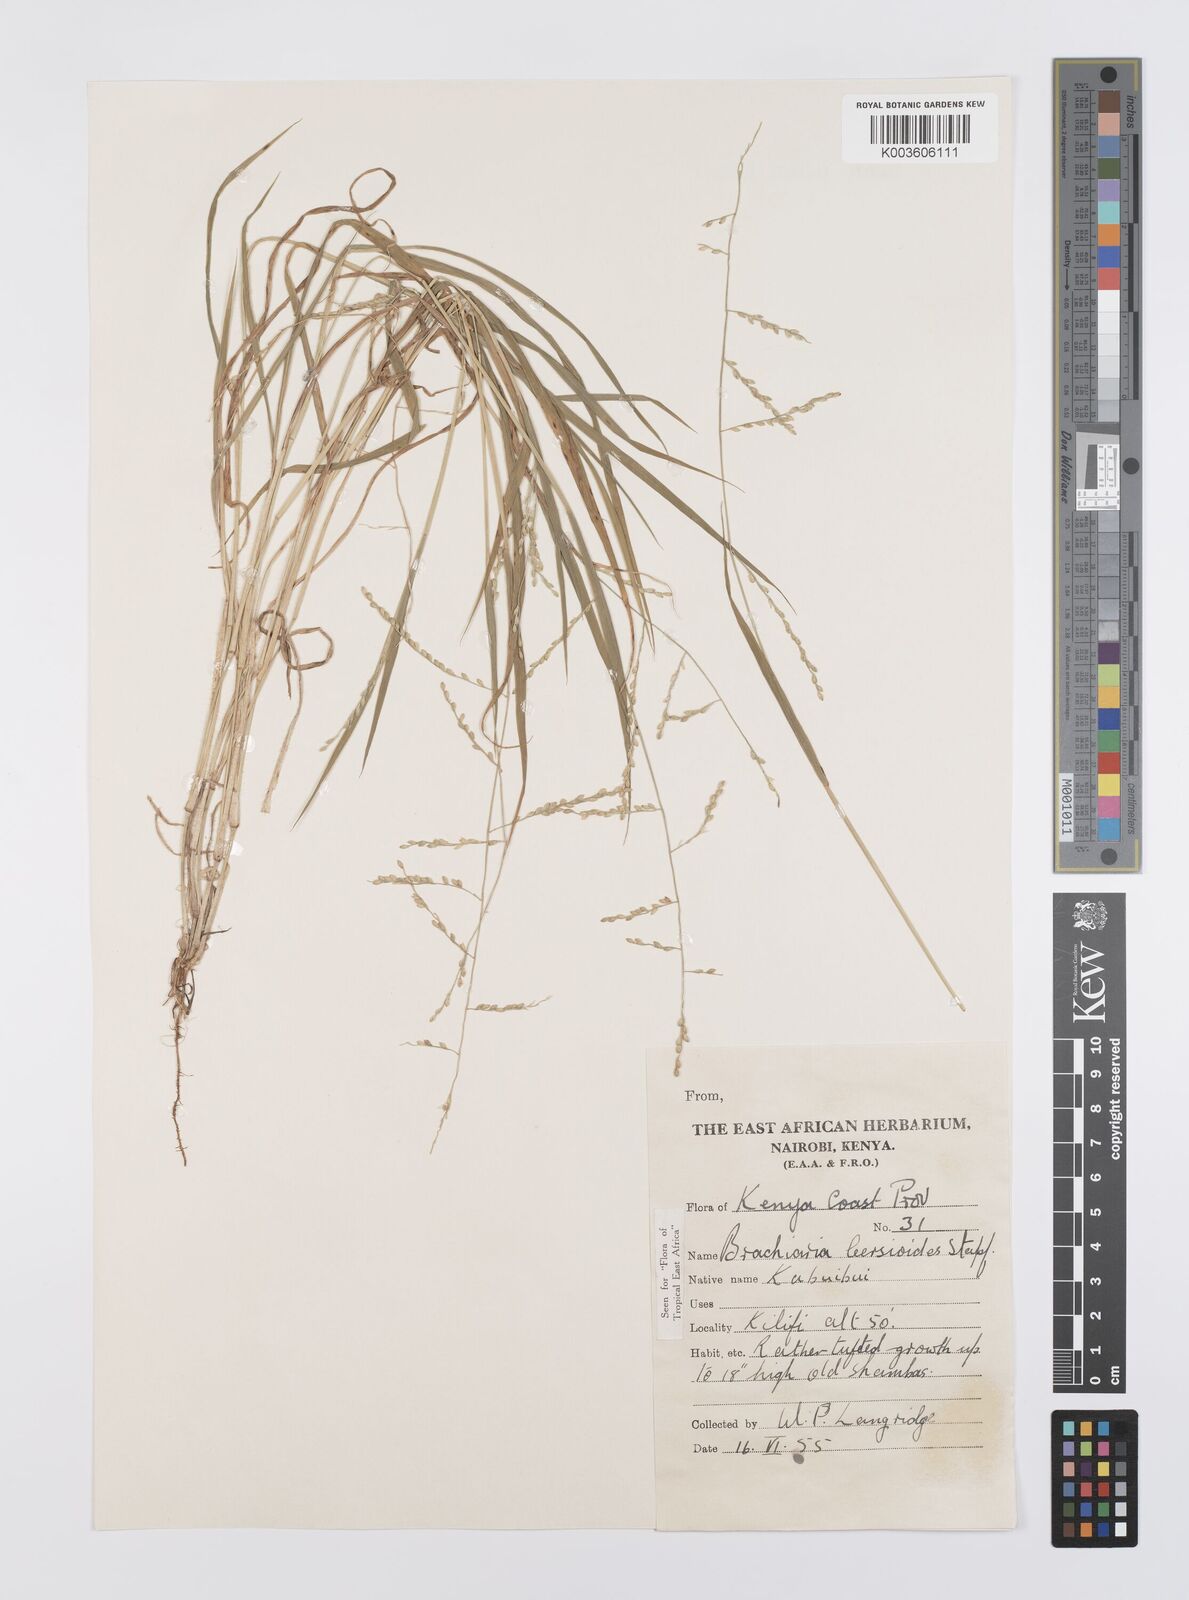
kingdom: Plantae
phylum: Tracheophyta
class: Liliopsida
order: Poales
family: Poaceae
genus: Urochloa
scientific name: Urochloa leersioides
